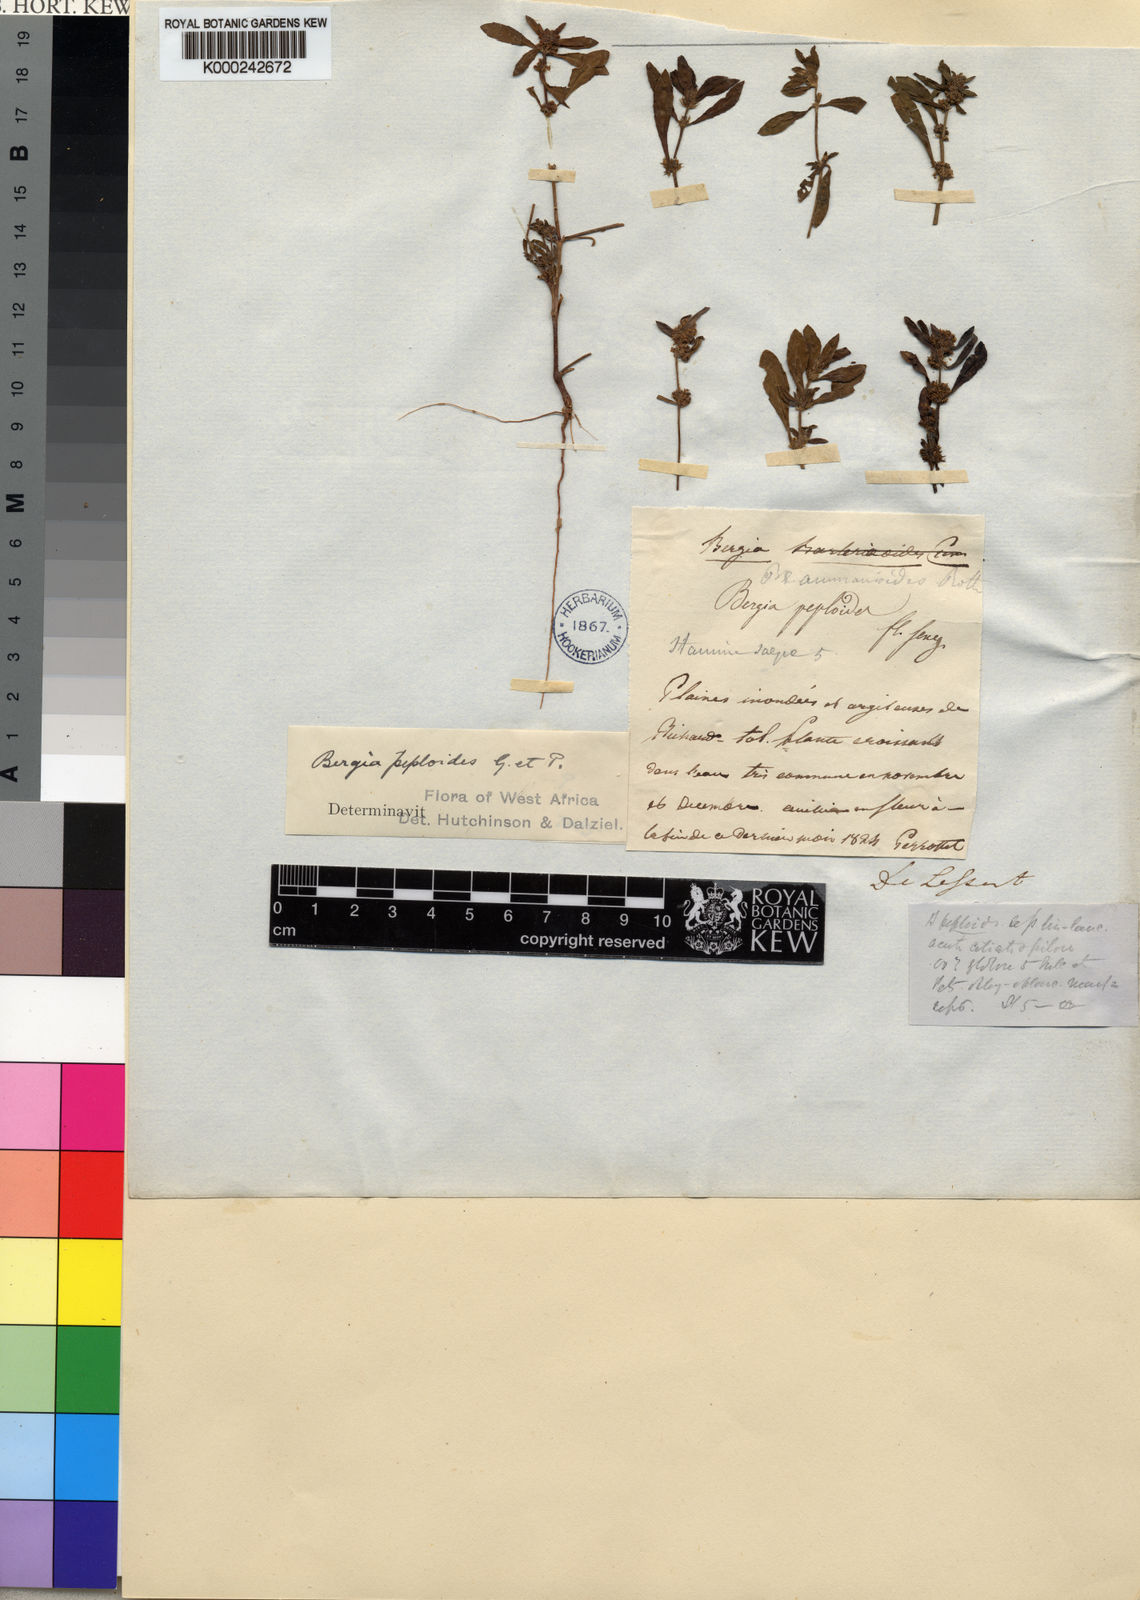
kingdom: Plantae
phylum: Tracheophyta
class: Magnoliopsida
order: Malpighiales
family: Elatinaceae
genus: Bergia
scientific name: Bergia ammannioides
